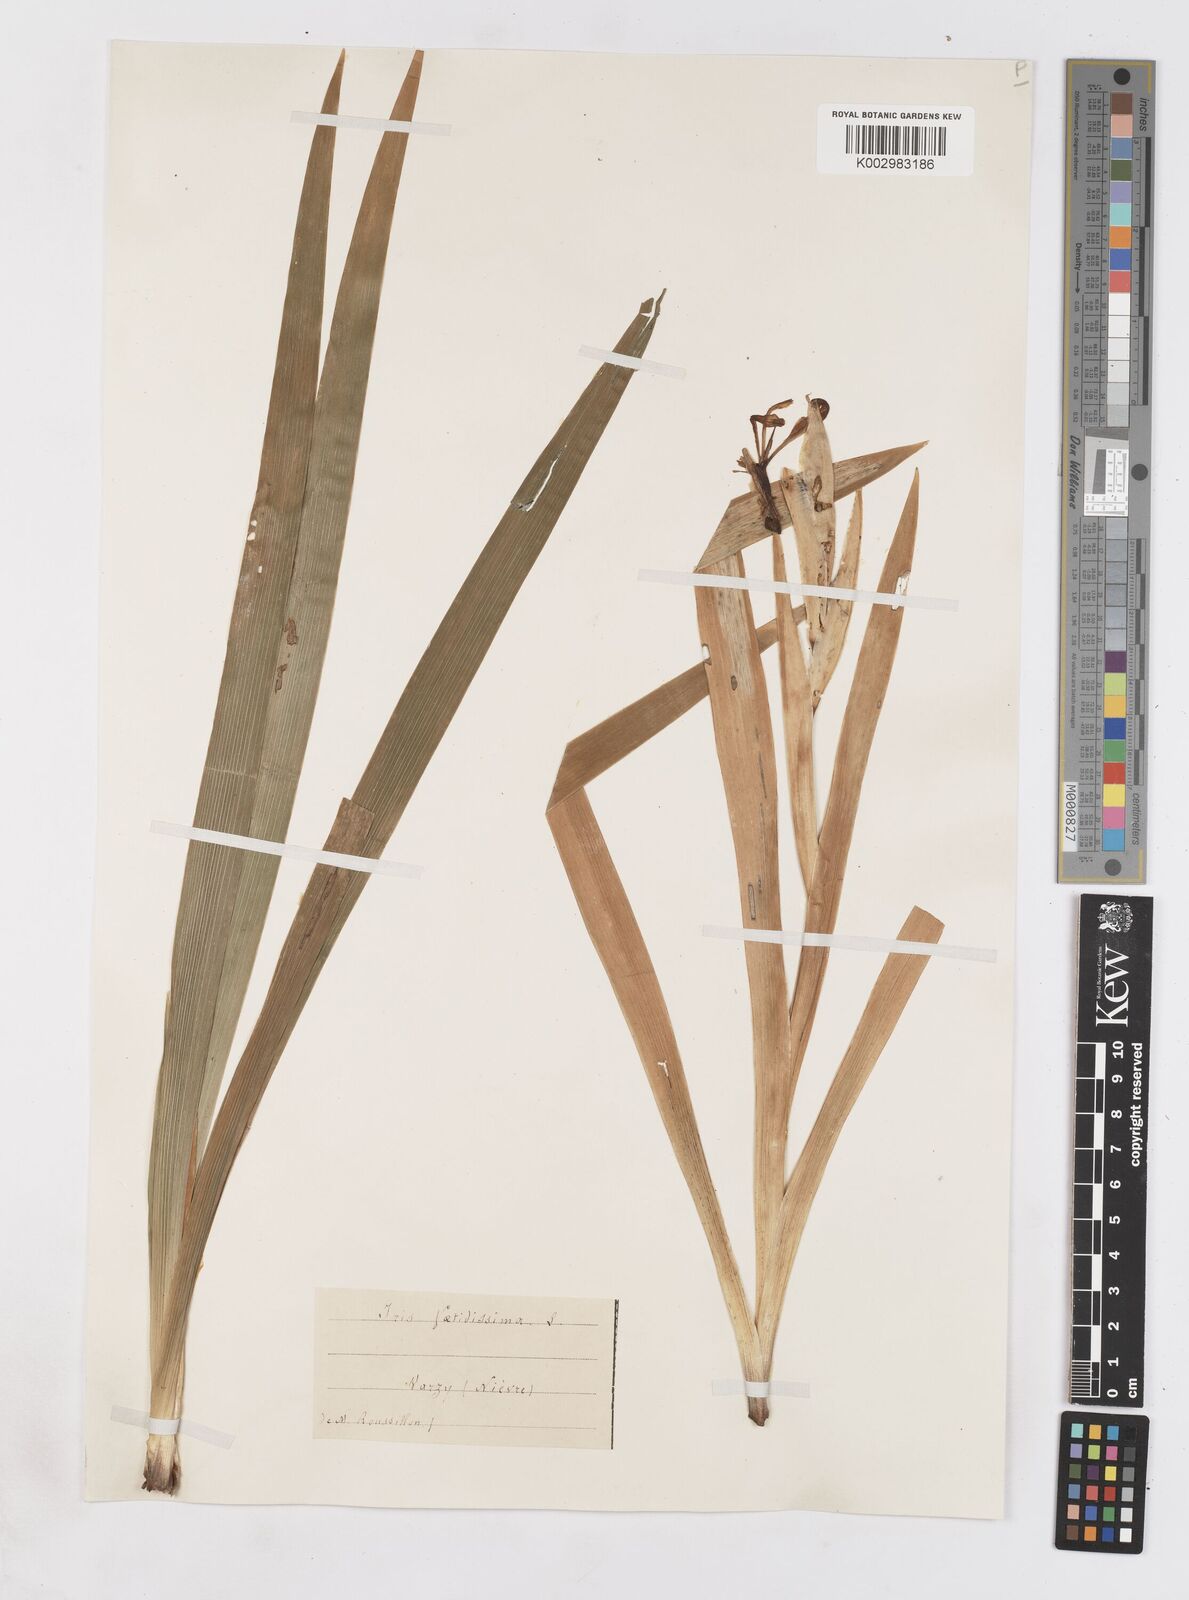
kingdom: Plantae
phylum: Tracheophyta
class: Liliopsida
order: Asparagales
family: Iridaceae
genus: Iris
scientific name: Iris foetidissima
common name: Stinking iris
